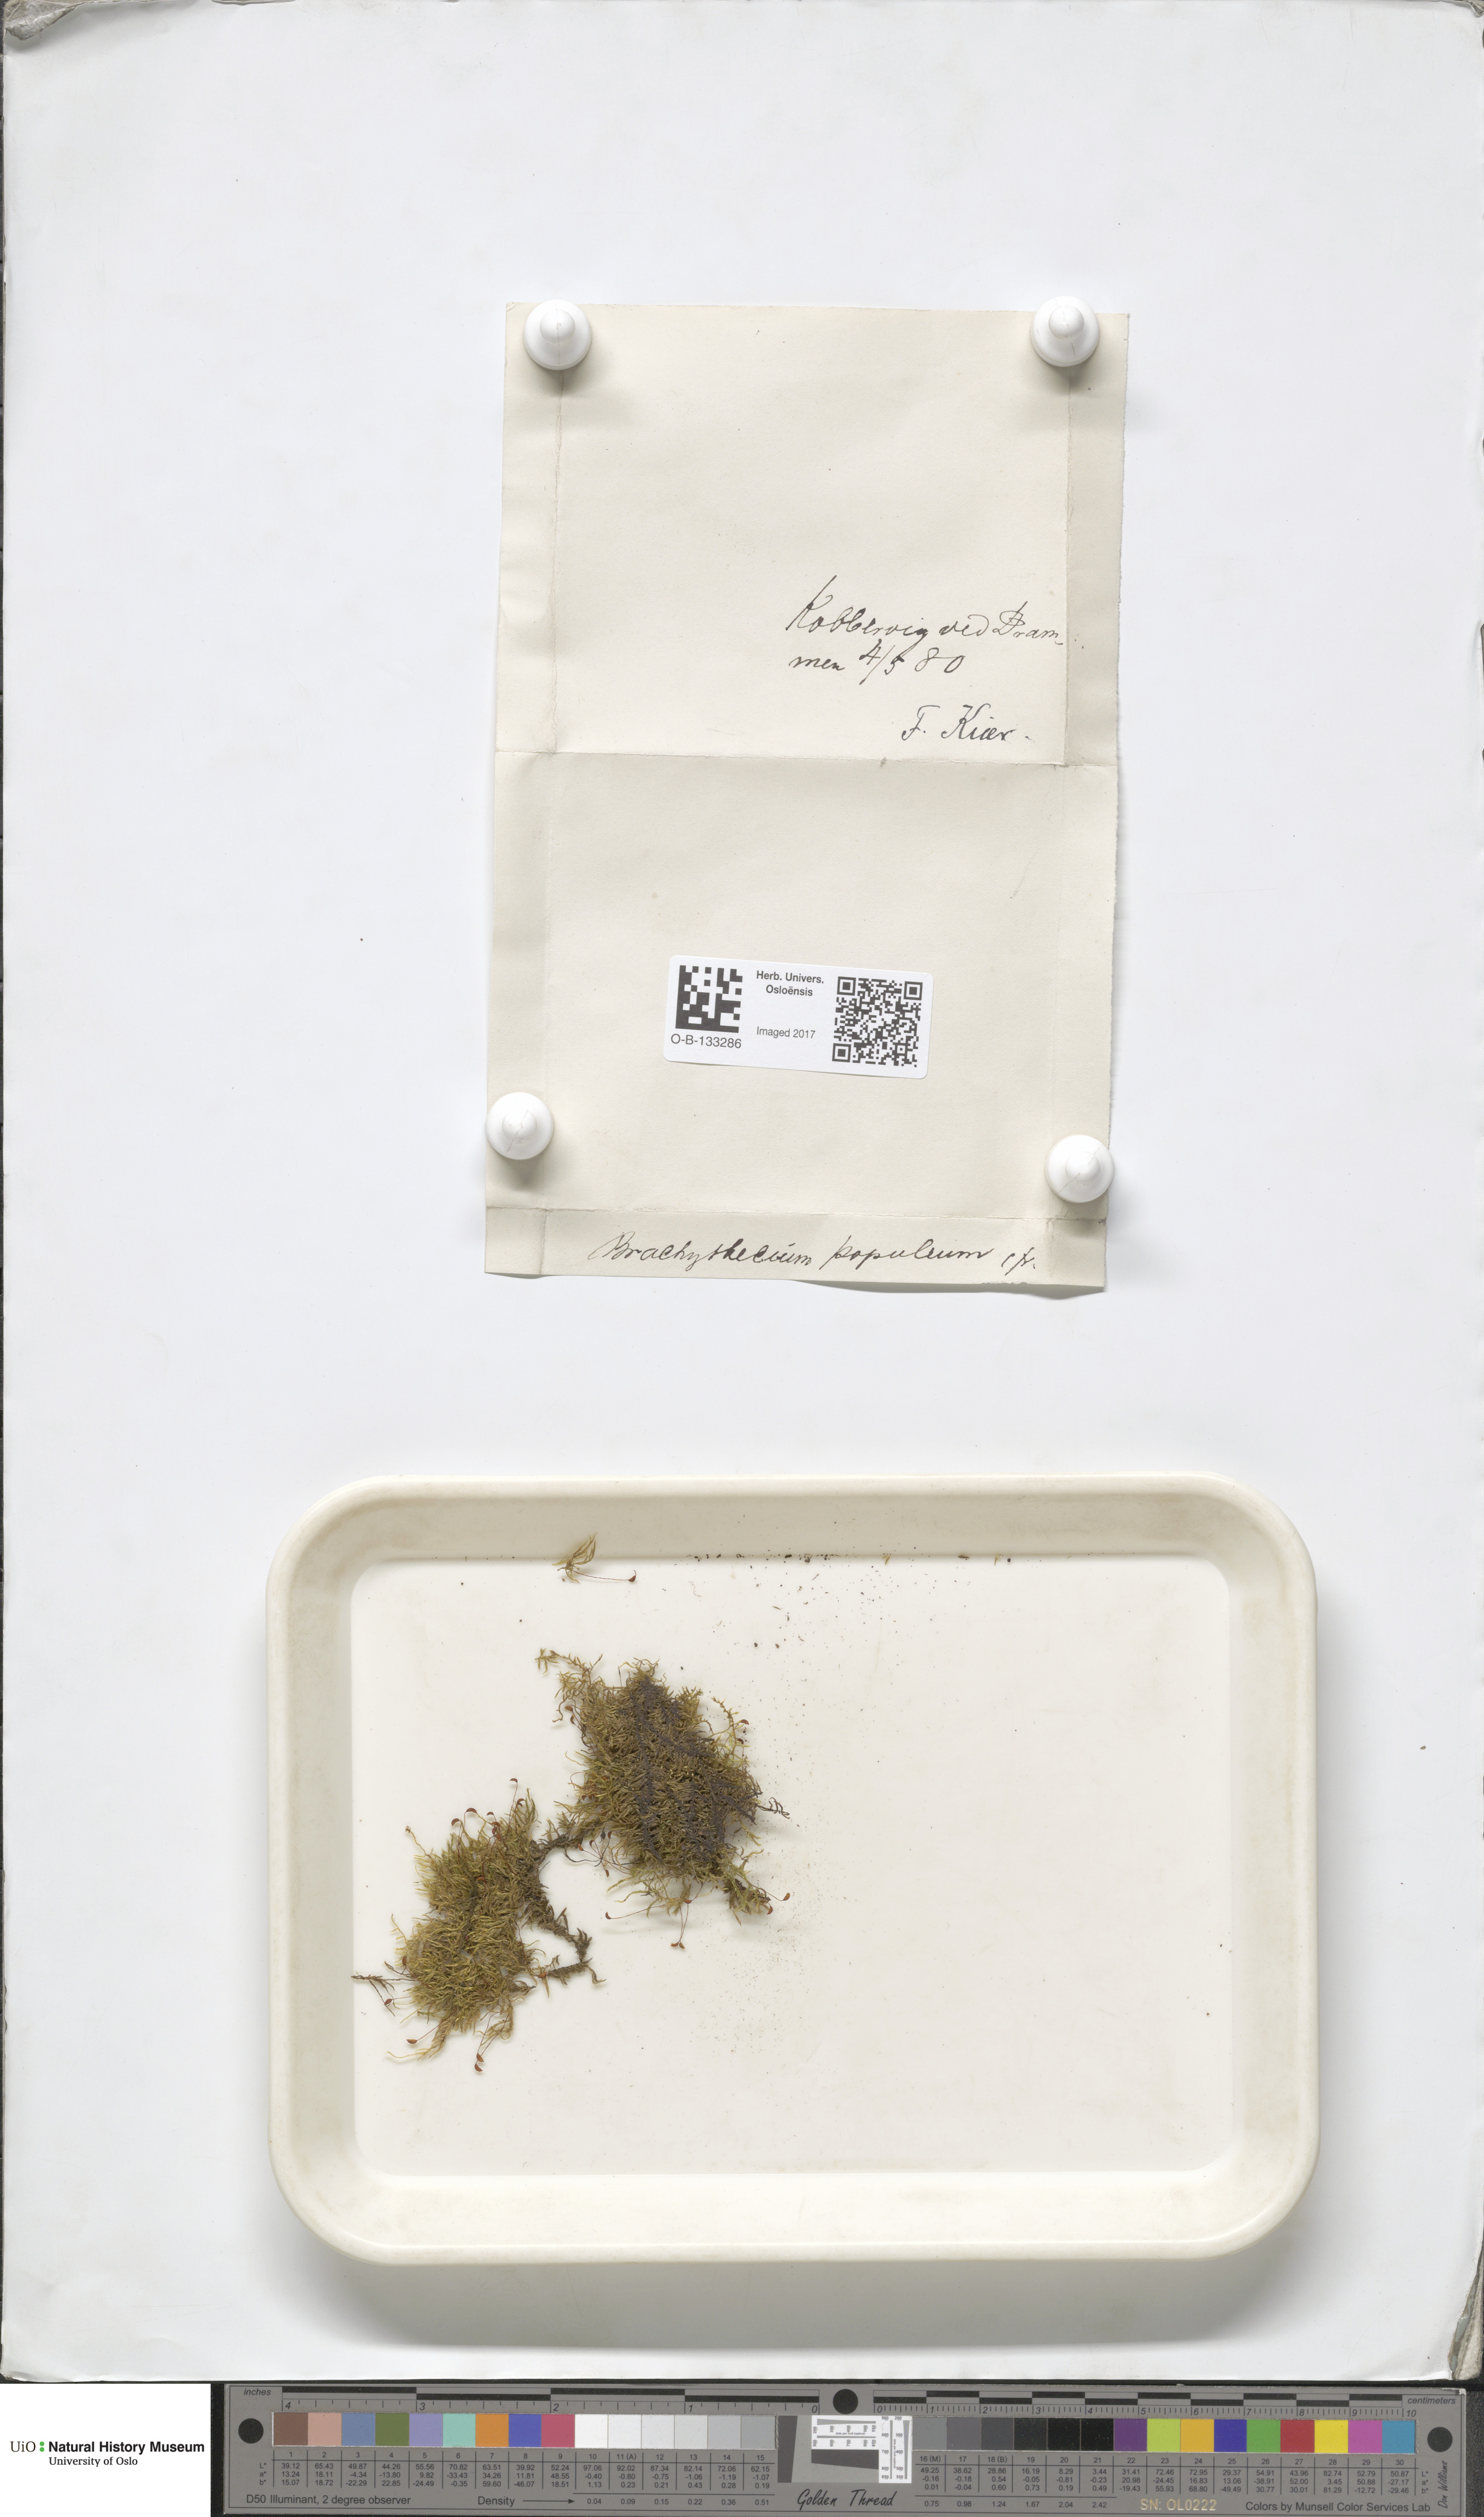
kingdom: Plantae
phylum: Bryophyta
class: Bryopsida
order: Hypnales
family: Brachytheciaceae
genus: Sciuro-hypnum
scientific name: Sciuro-hypnum plumosum
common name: Rusty feather-moss
